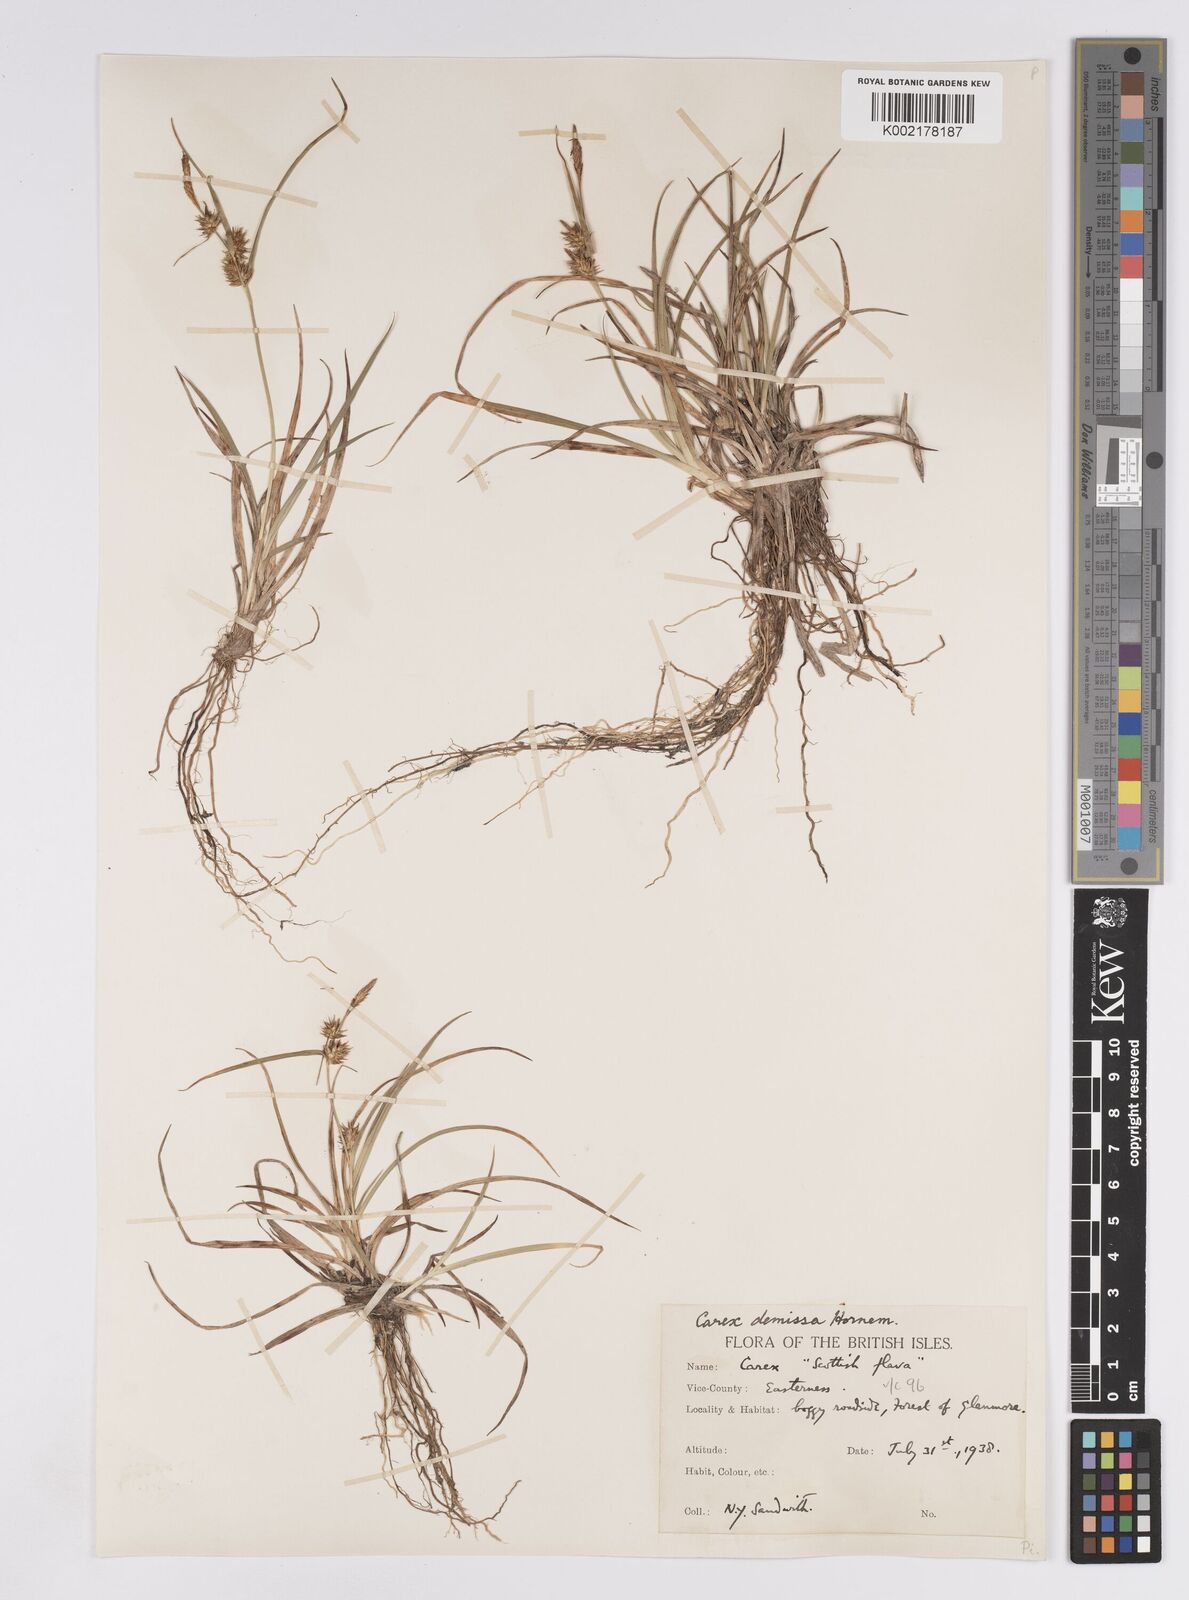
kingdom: Plantae
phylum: Tracheophyta
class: Liliopsida
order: Poales
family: Cyperaceae
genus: Carex
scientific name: Carex demissa
